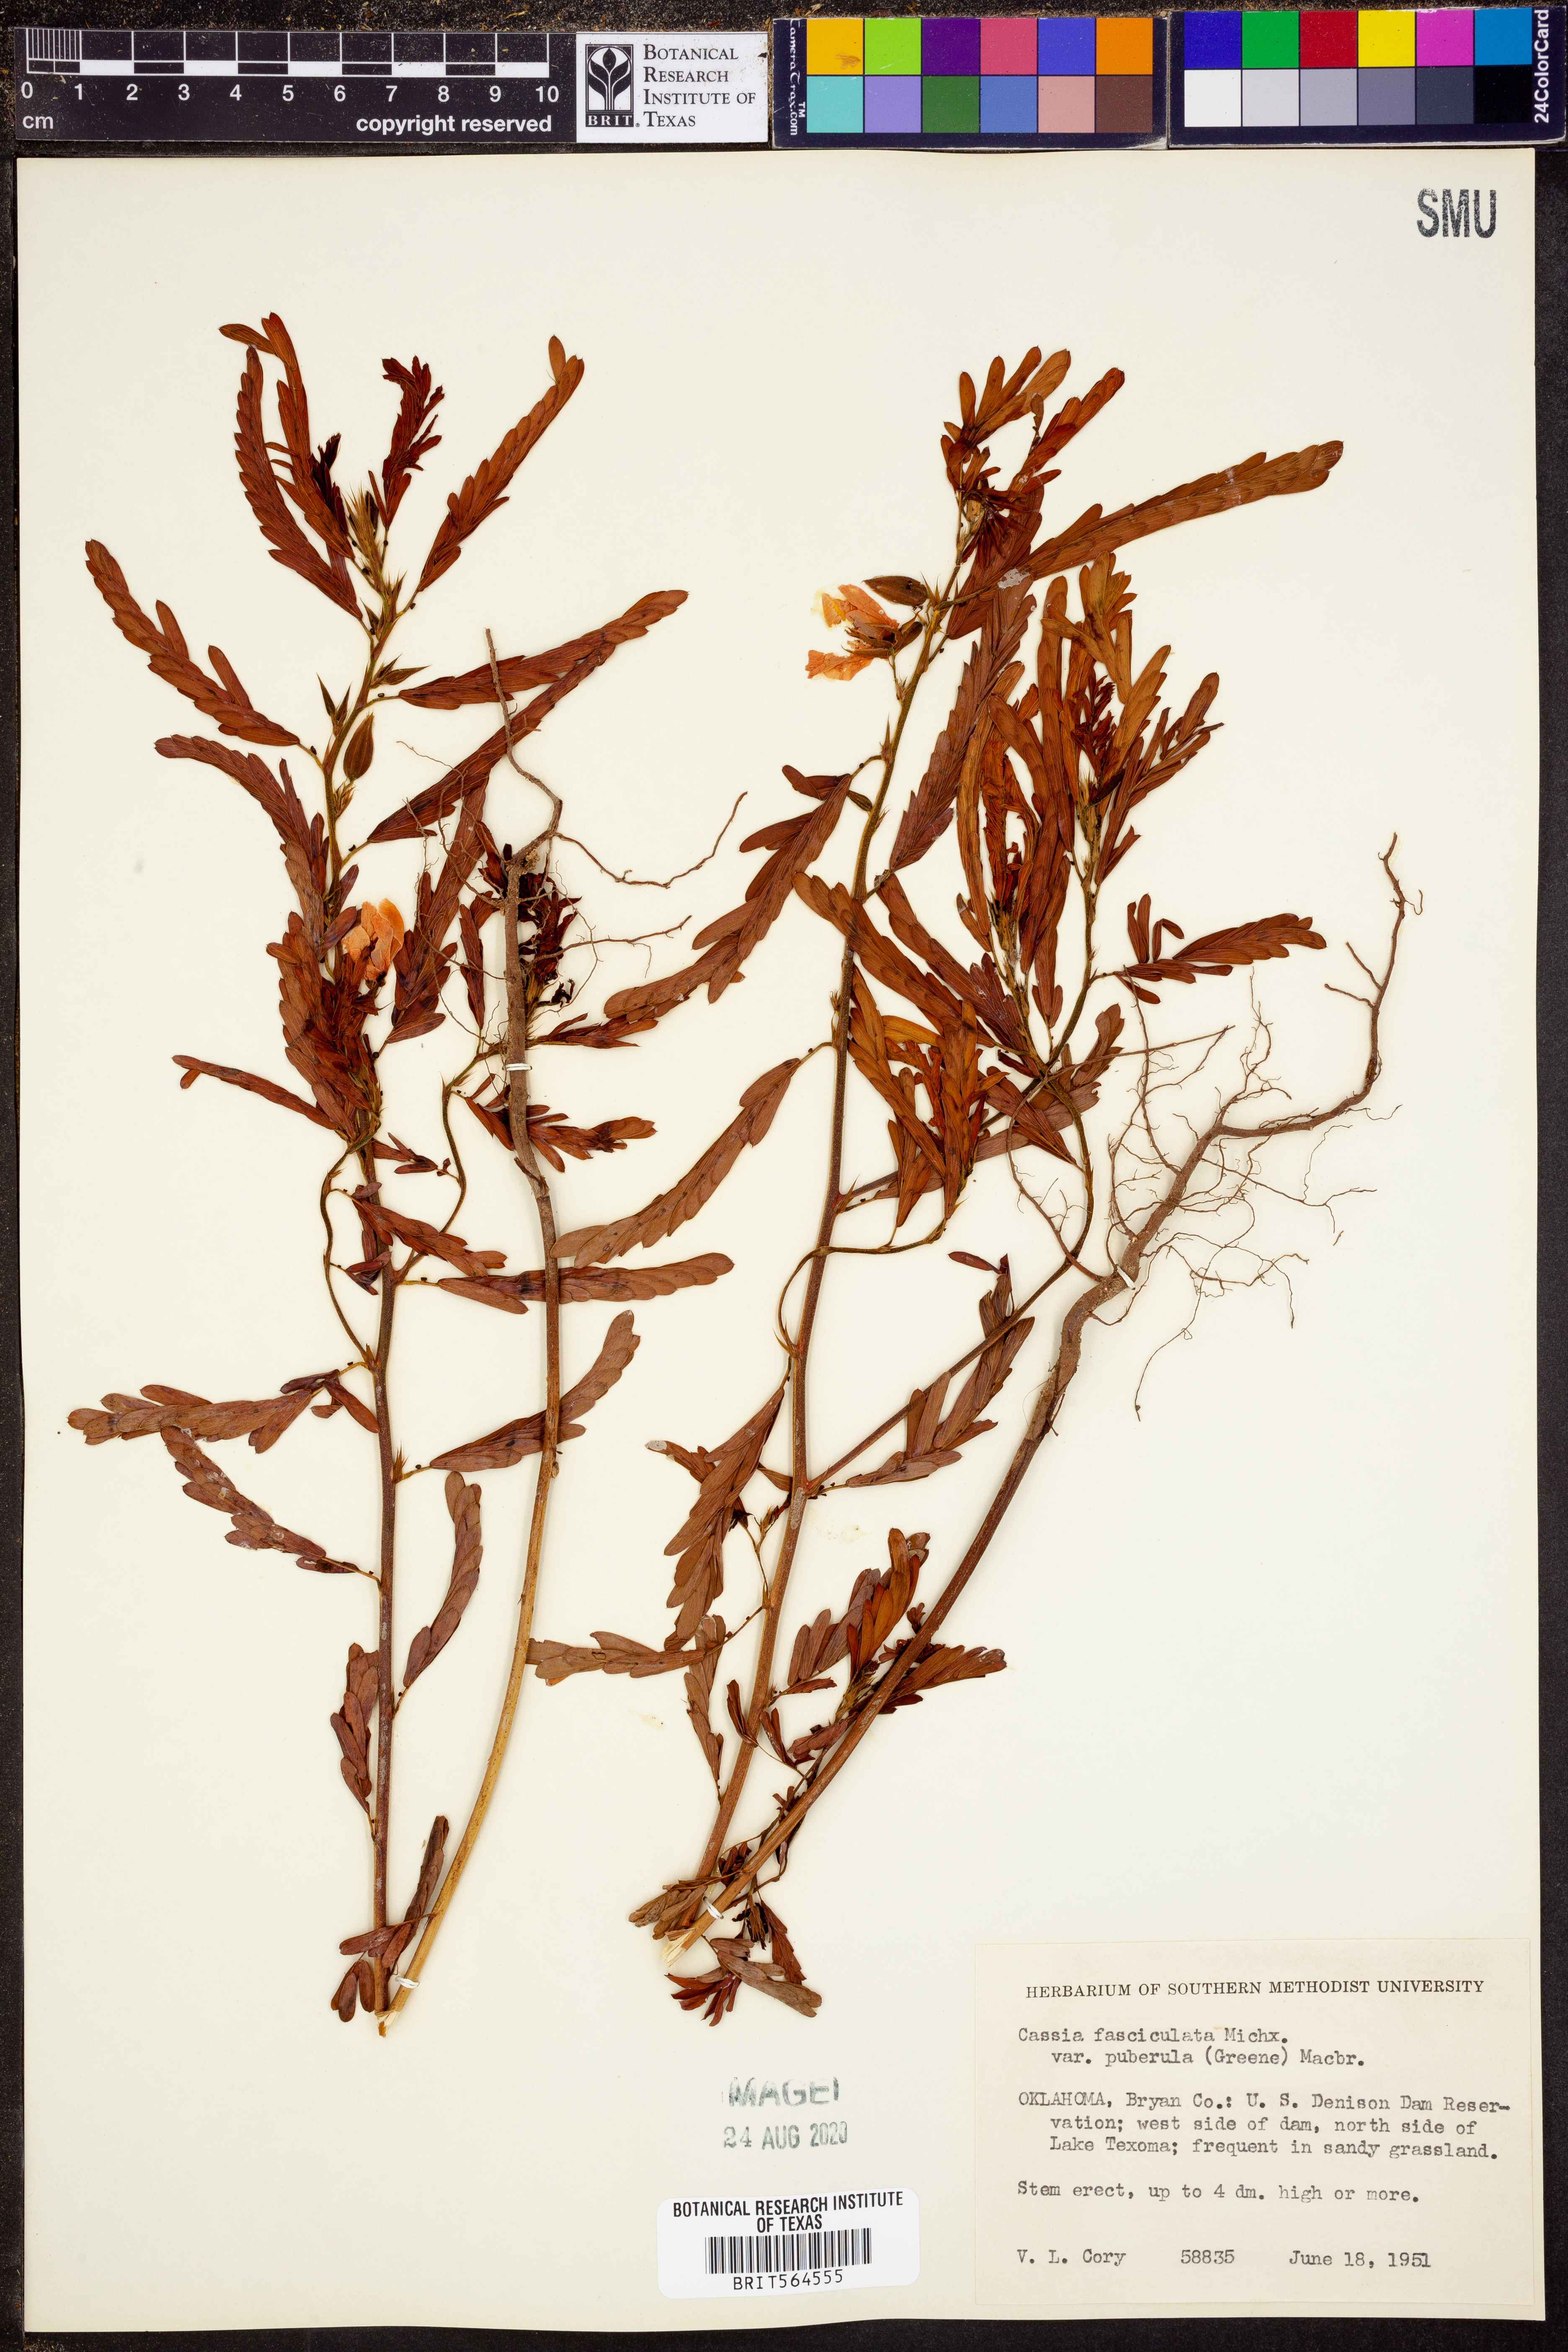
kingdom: Plantae
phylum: Tracheophyta
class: Magnoliopsida
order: Fabales
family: Fabaceae
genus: Chamaecrista
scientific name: Chamaecrista fasciculata
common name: Golden cassia
